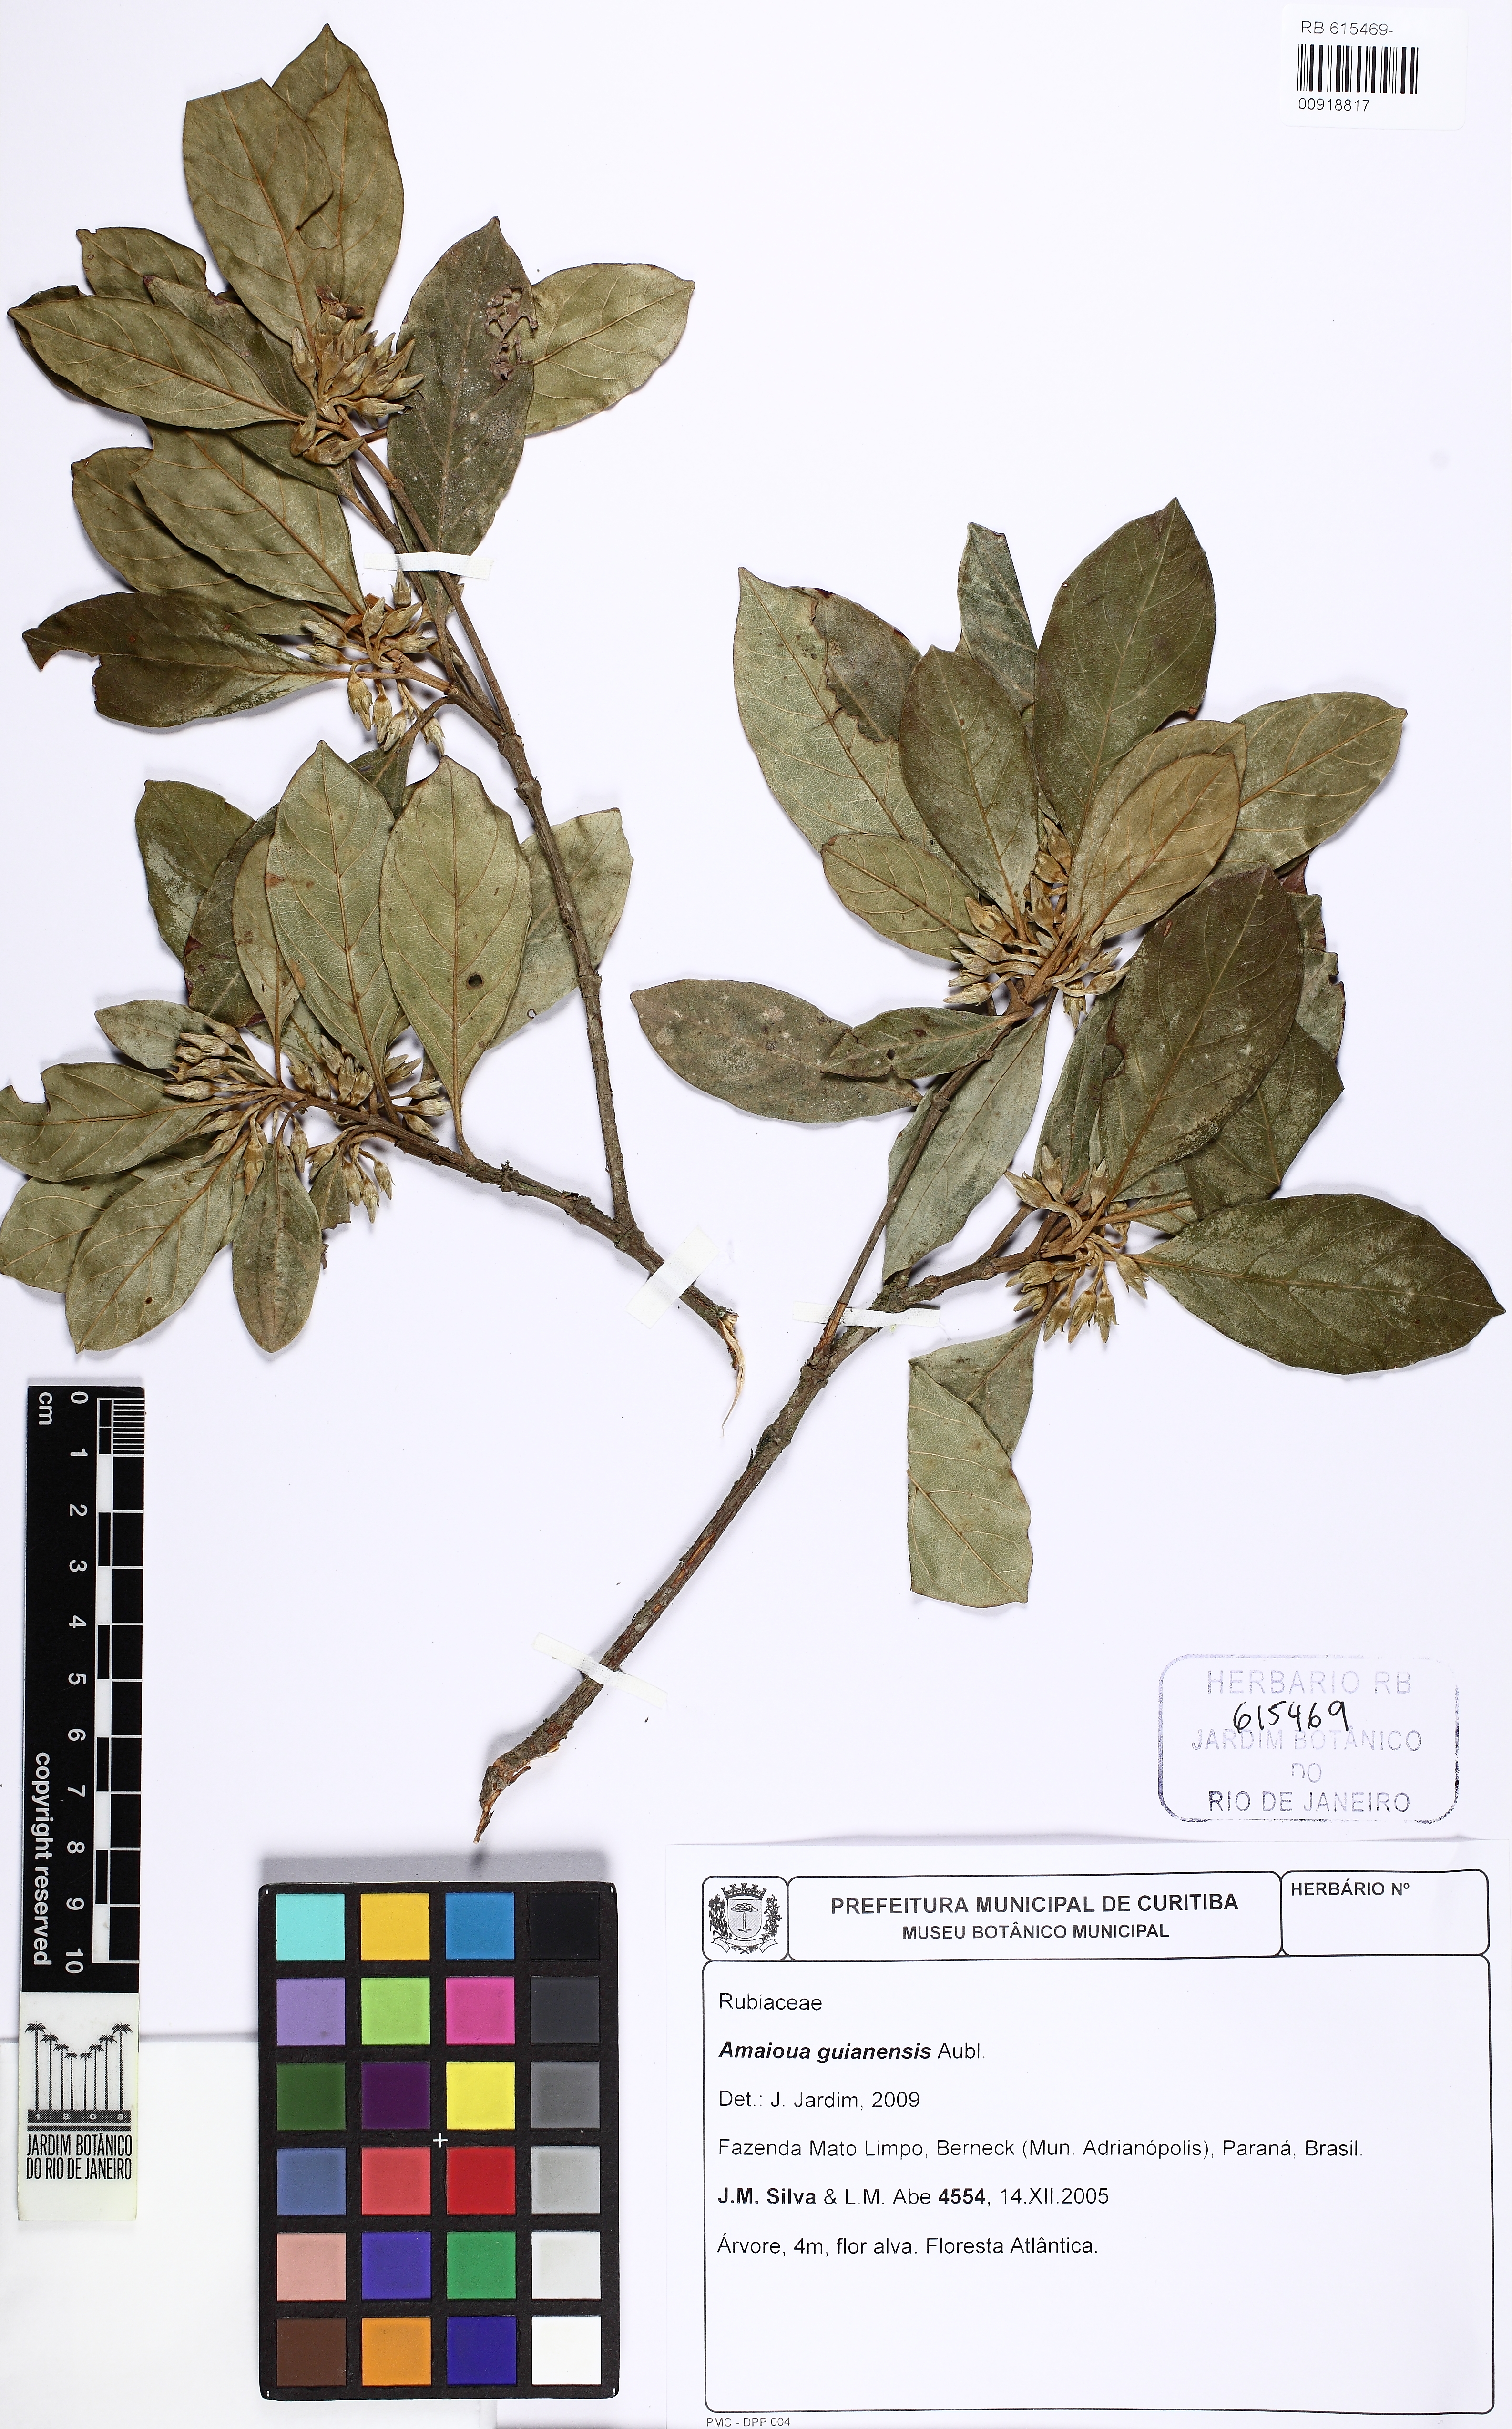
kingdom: Plantae
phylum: Tracheophyta
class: Magnoliopsida
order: Gentianales
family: Rubiaceae
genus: Amaioua
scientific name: Amaioua guianensis
